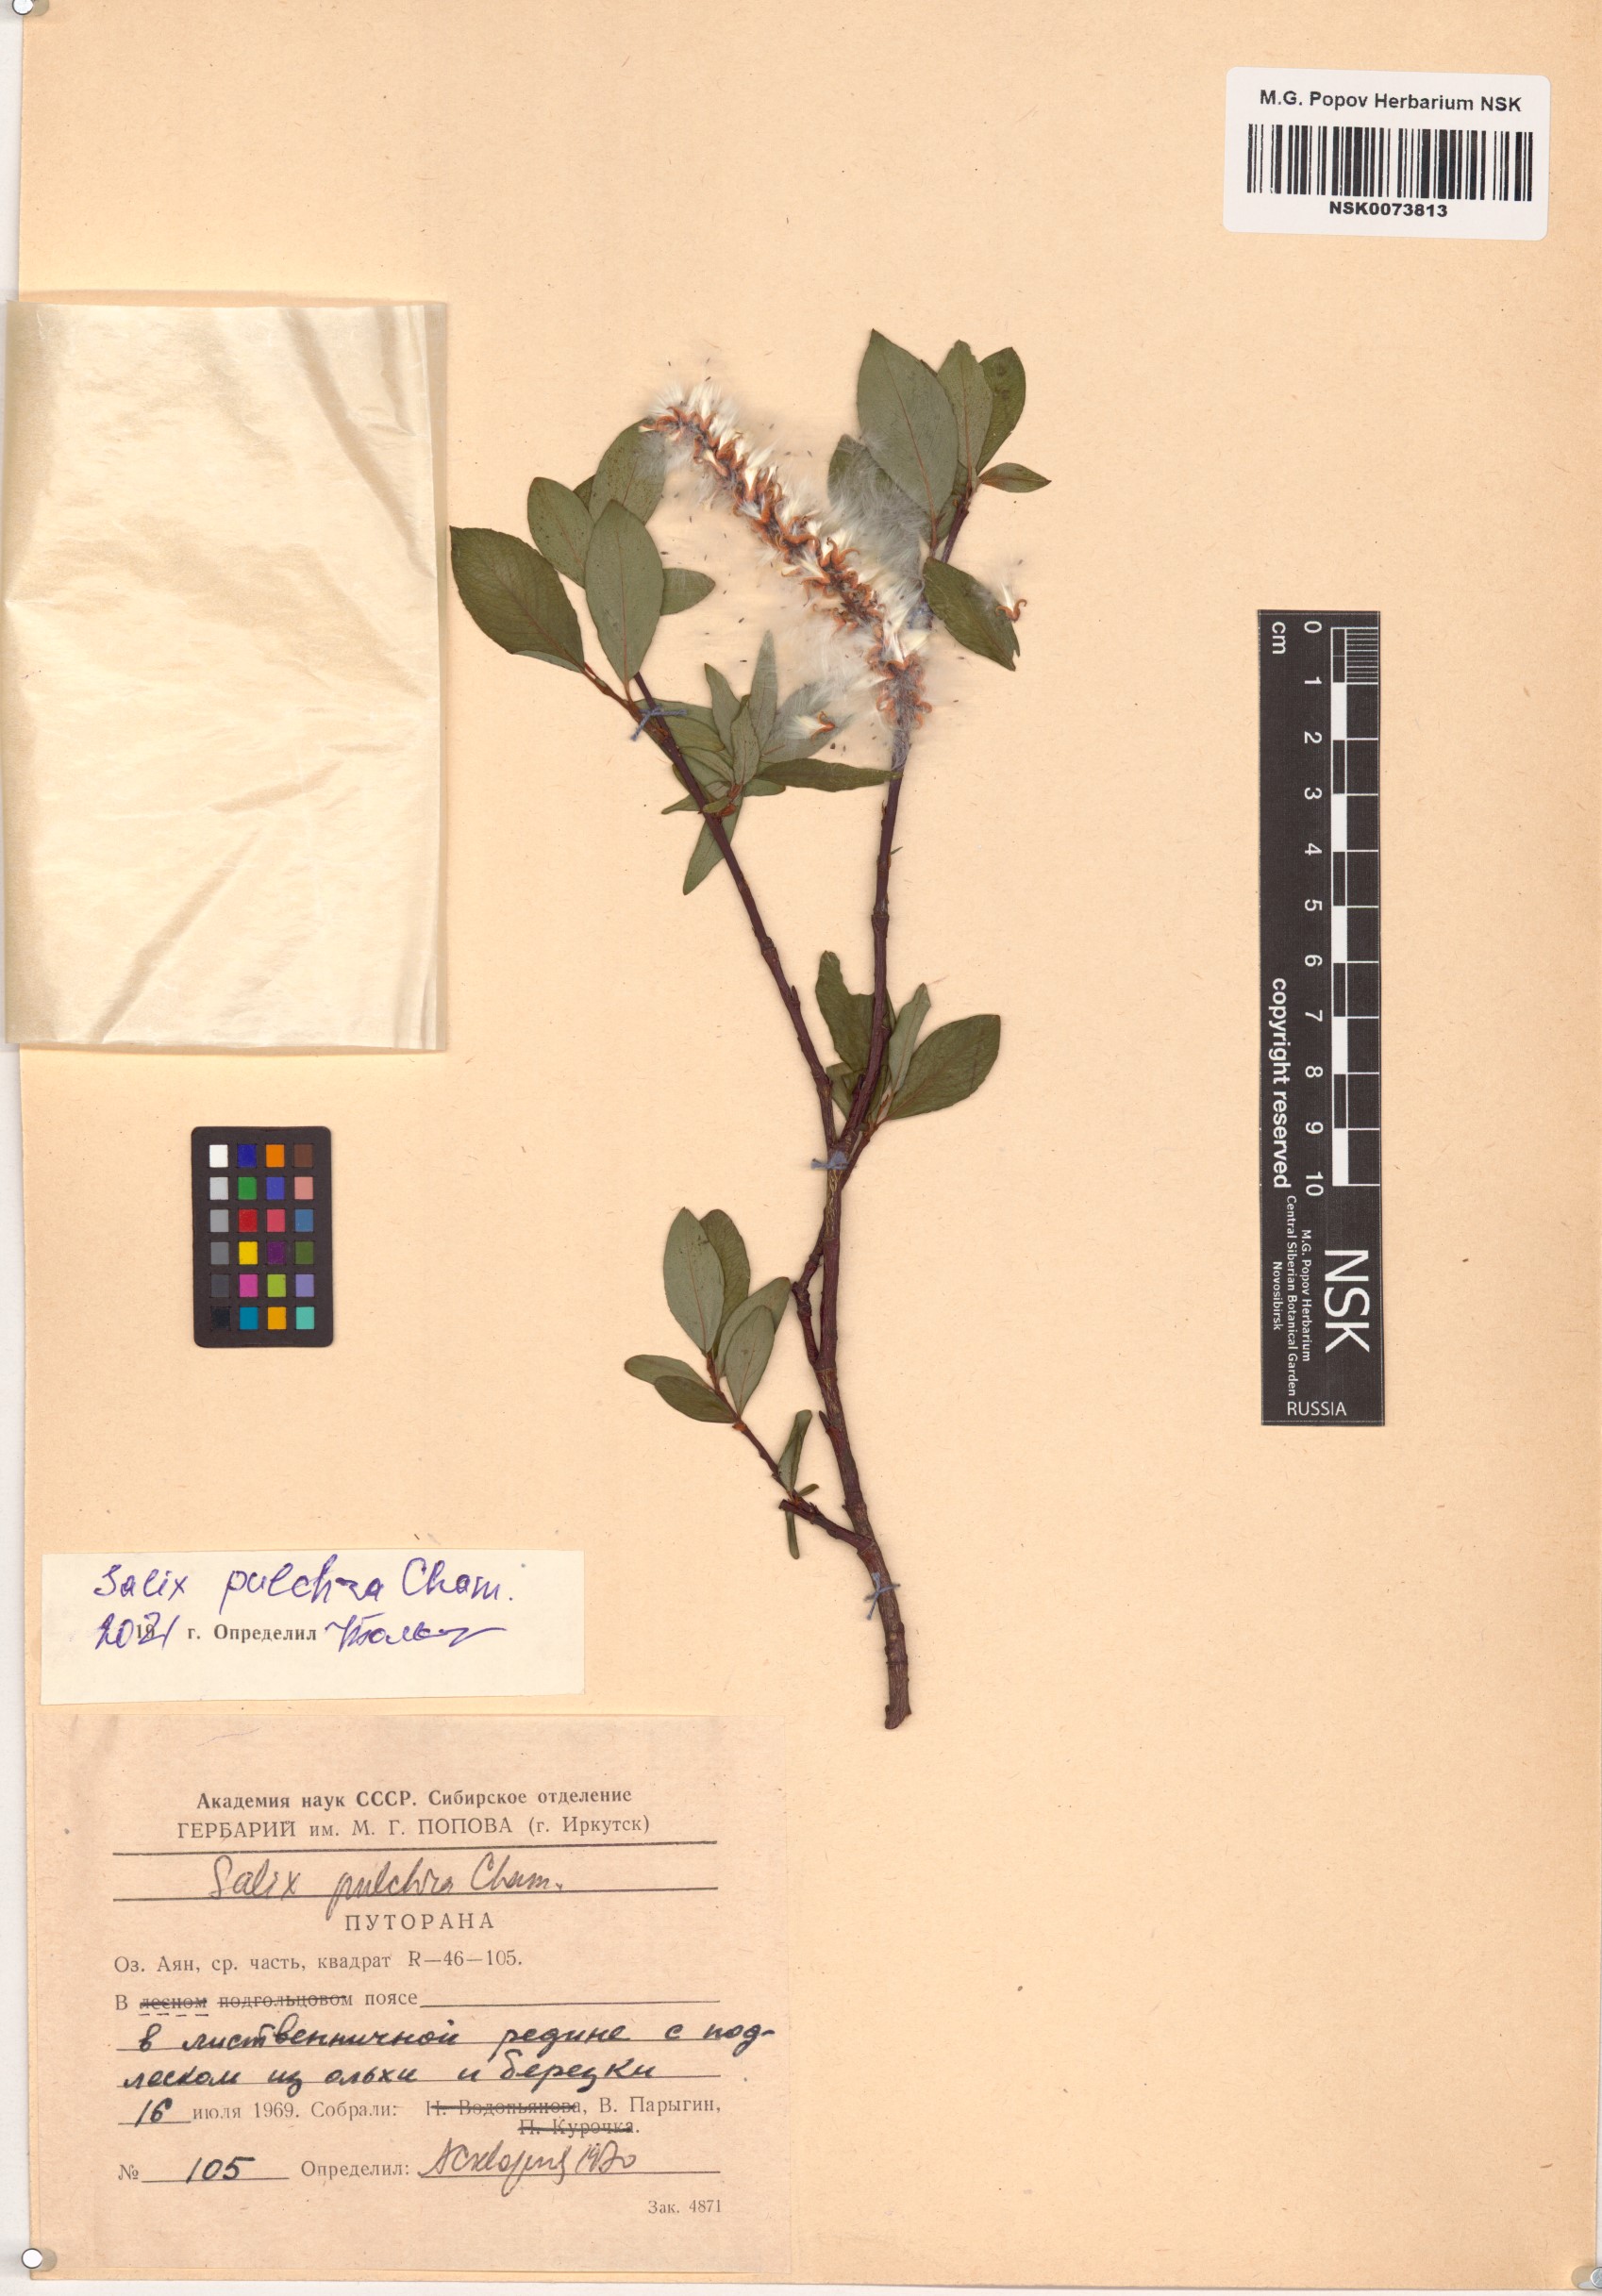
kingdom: Plantae
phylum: Tracheophyta
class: Magnoliopsida
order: Malpighiales
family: Salicaceae
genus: Salix
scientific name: Salix pulchra
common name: Diamond-leaved willow
